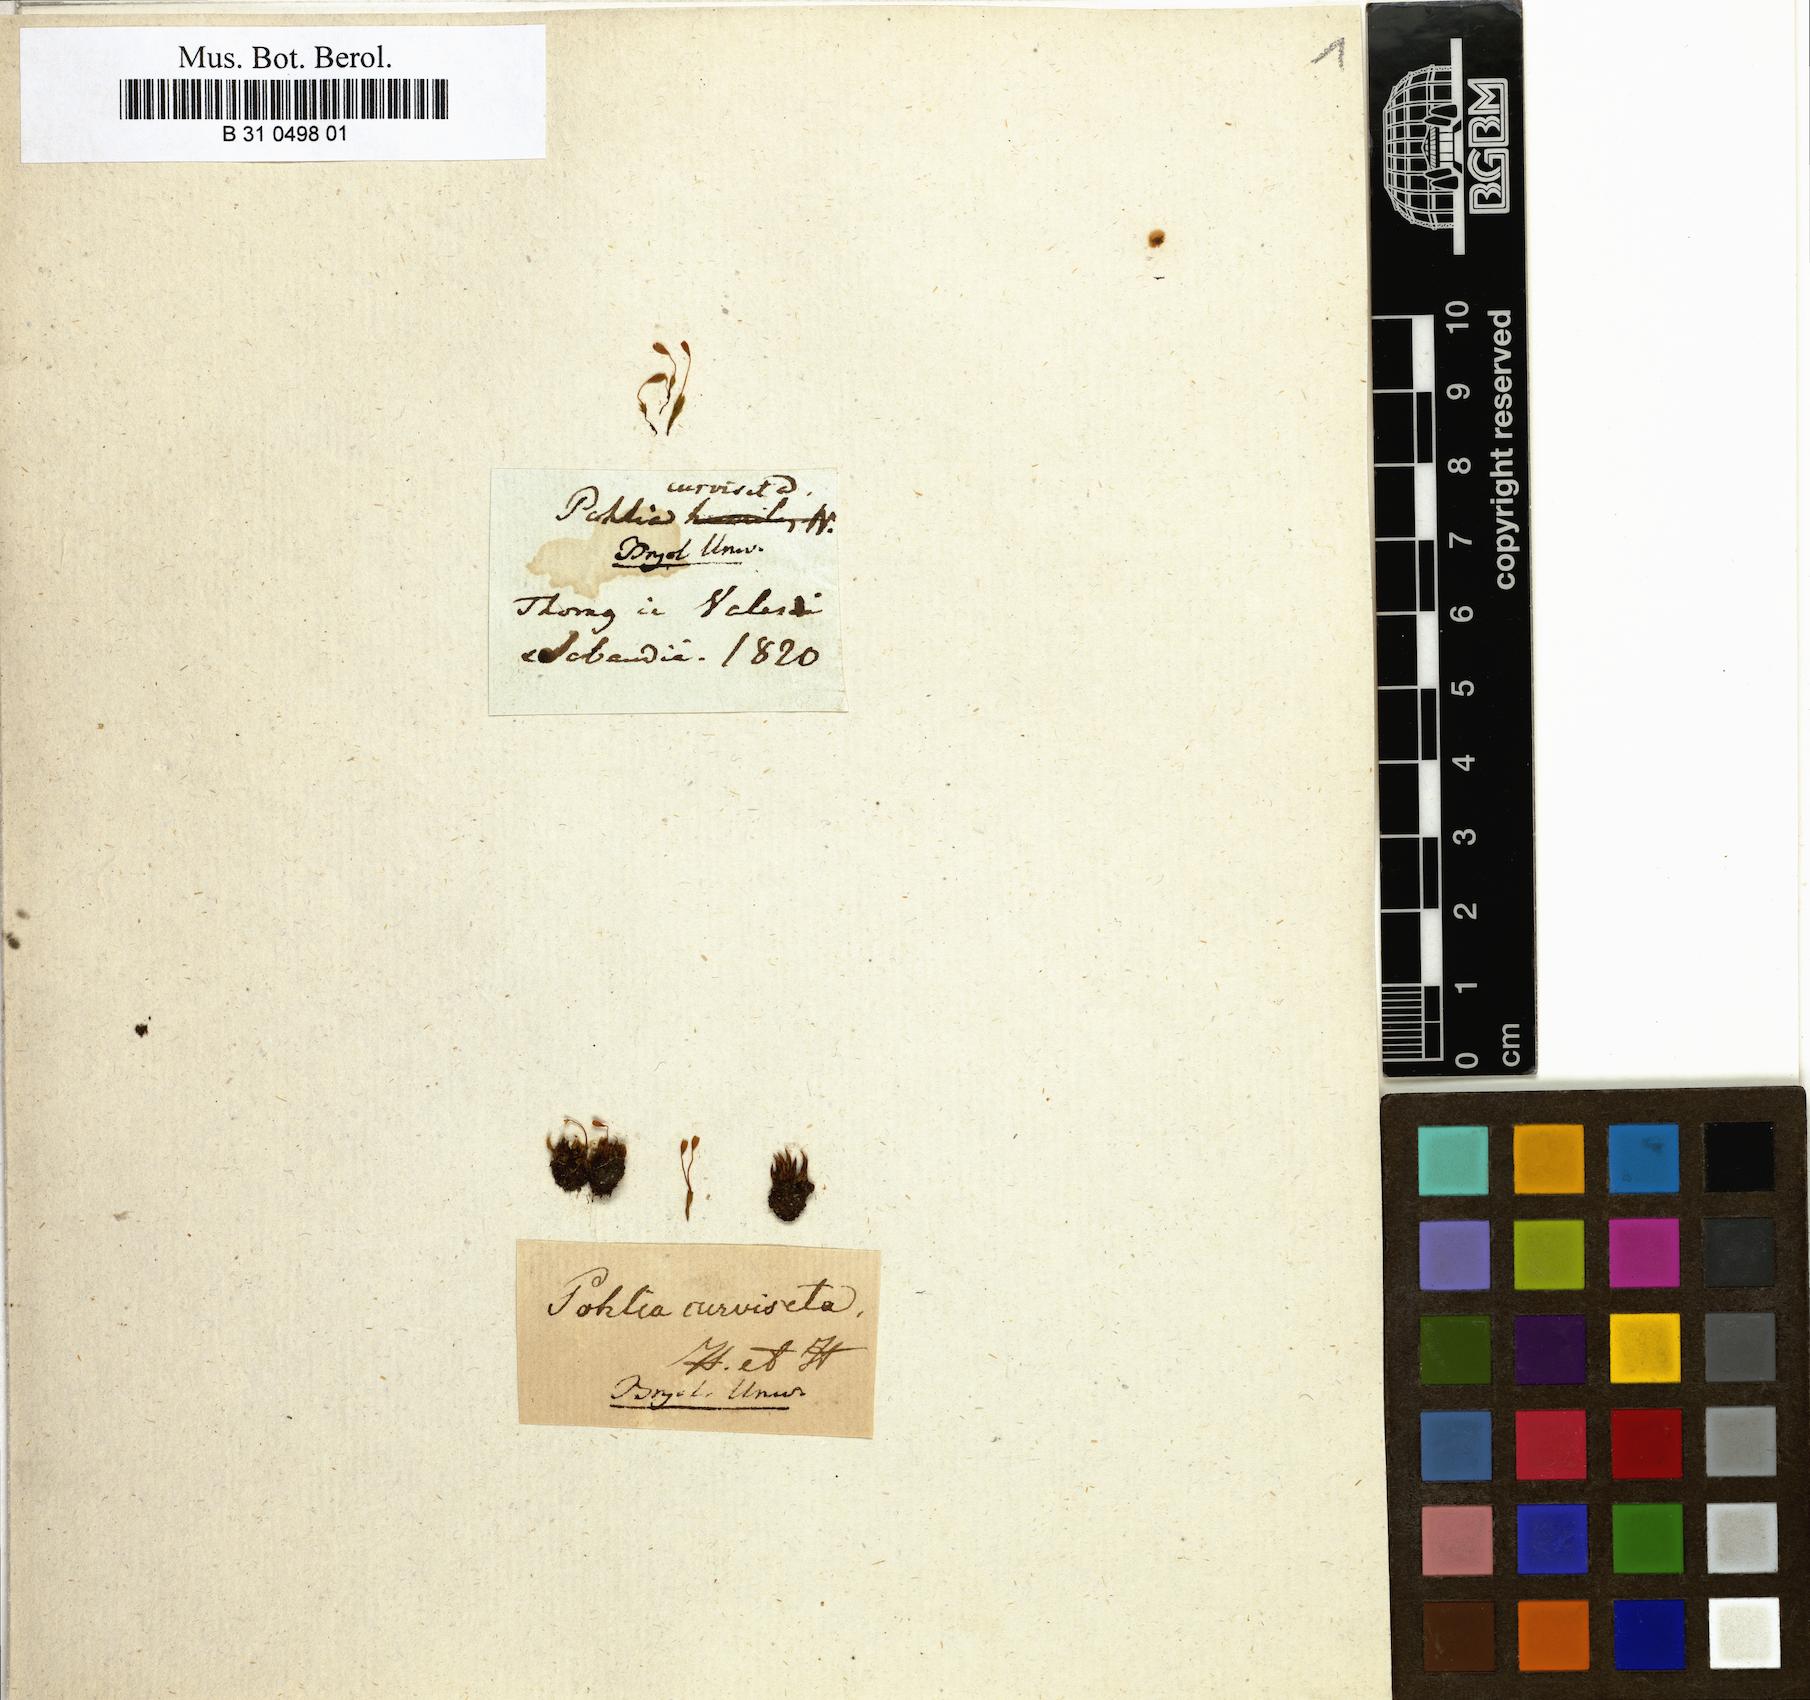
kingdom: Plantae
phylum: Bryophyta
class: Bryopsida
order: Bryales
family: Mniaceae
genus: Pohlia
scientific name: Pohlia elongata
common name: Long-fruited thread-moss
